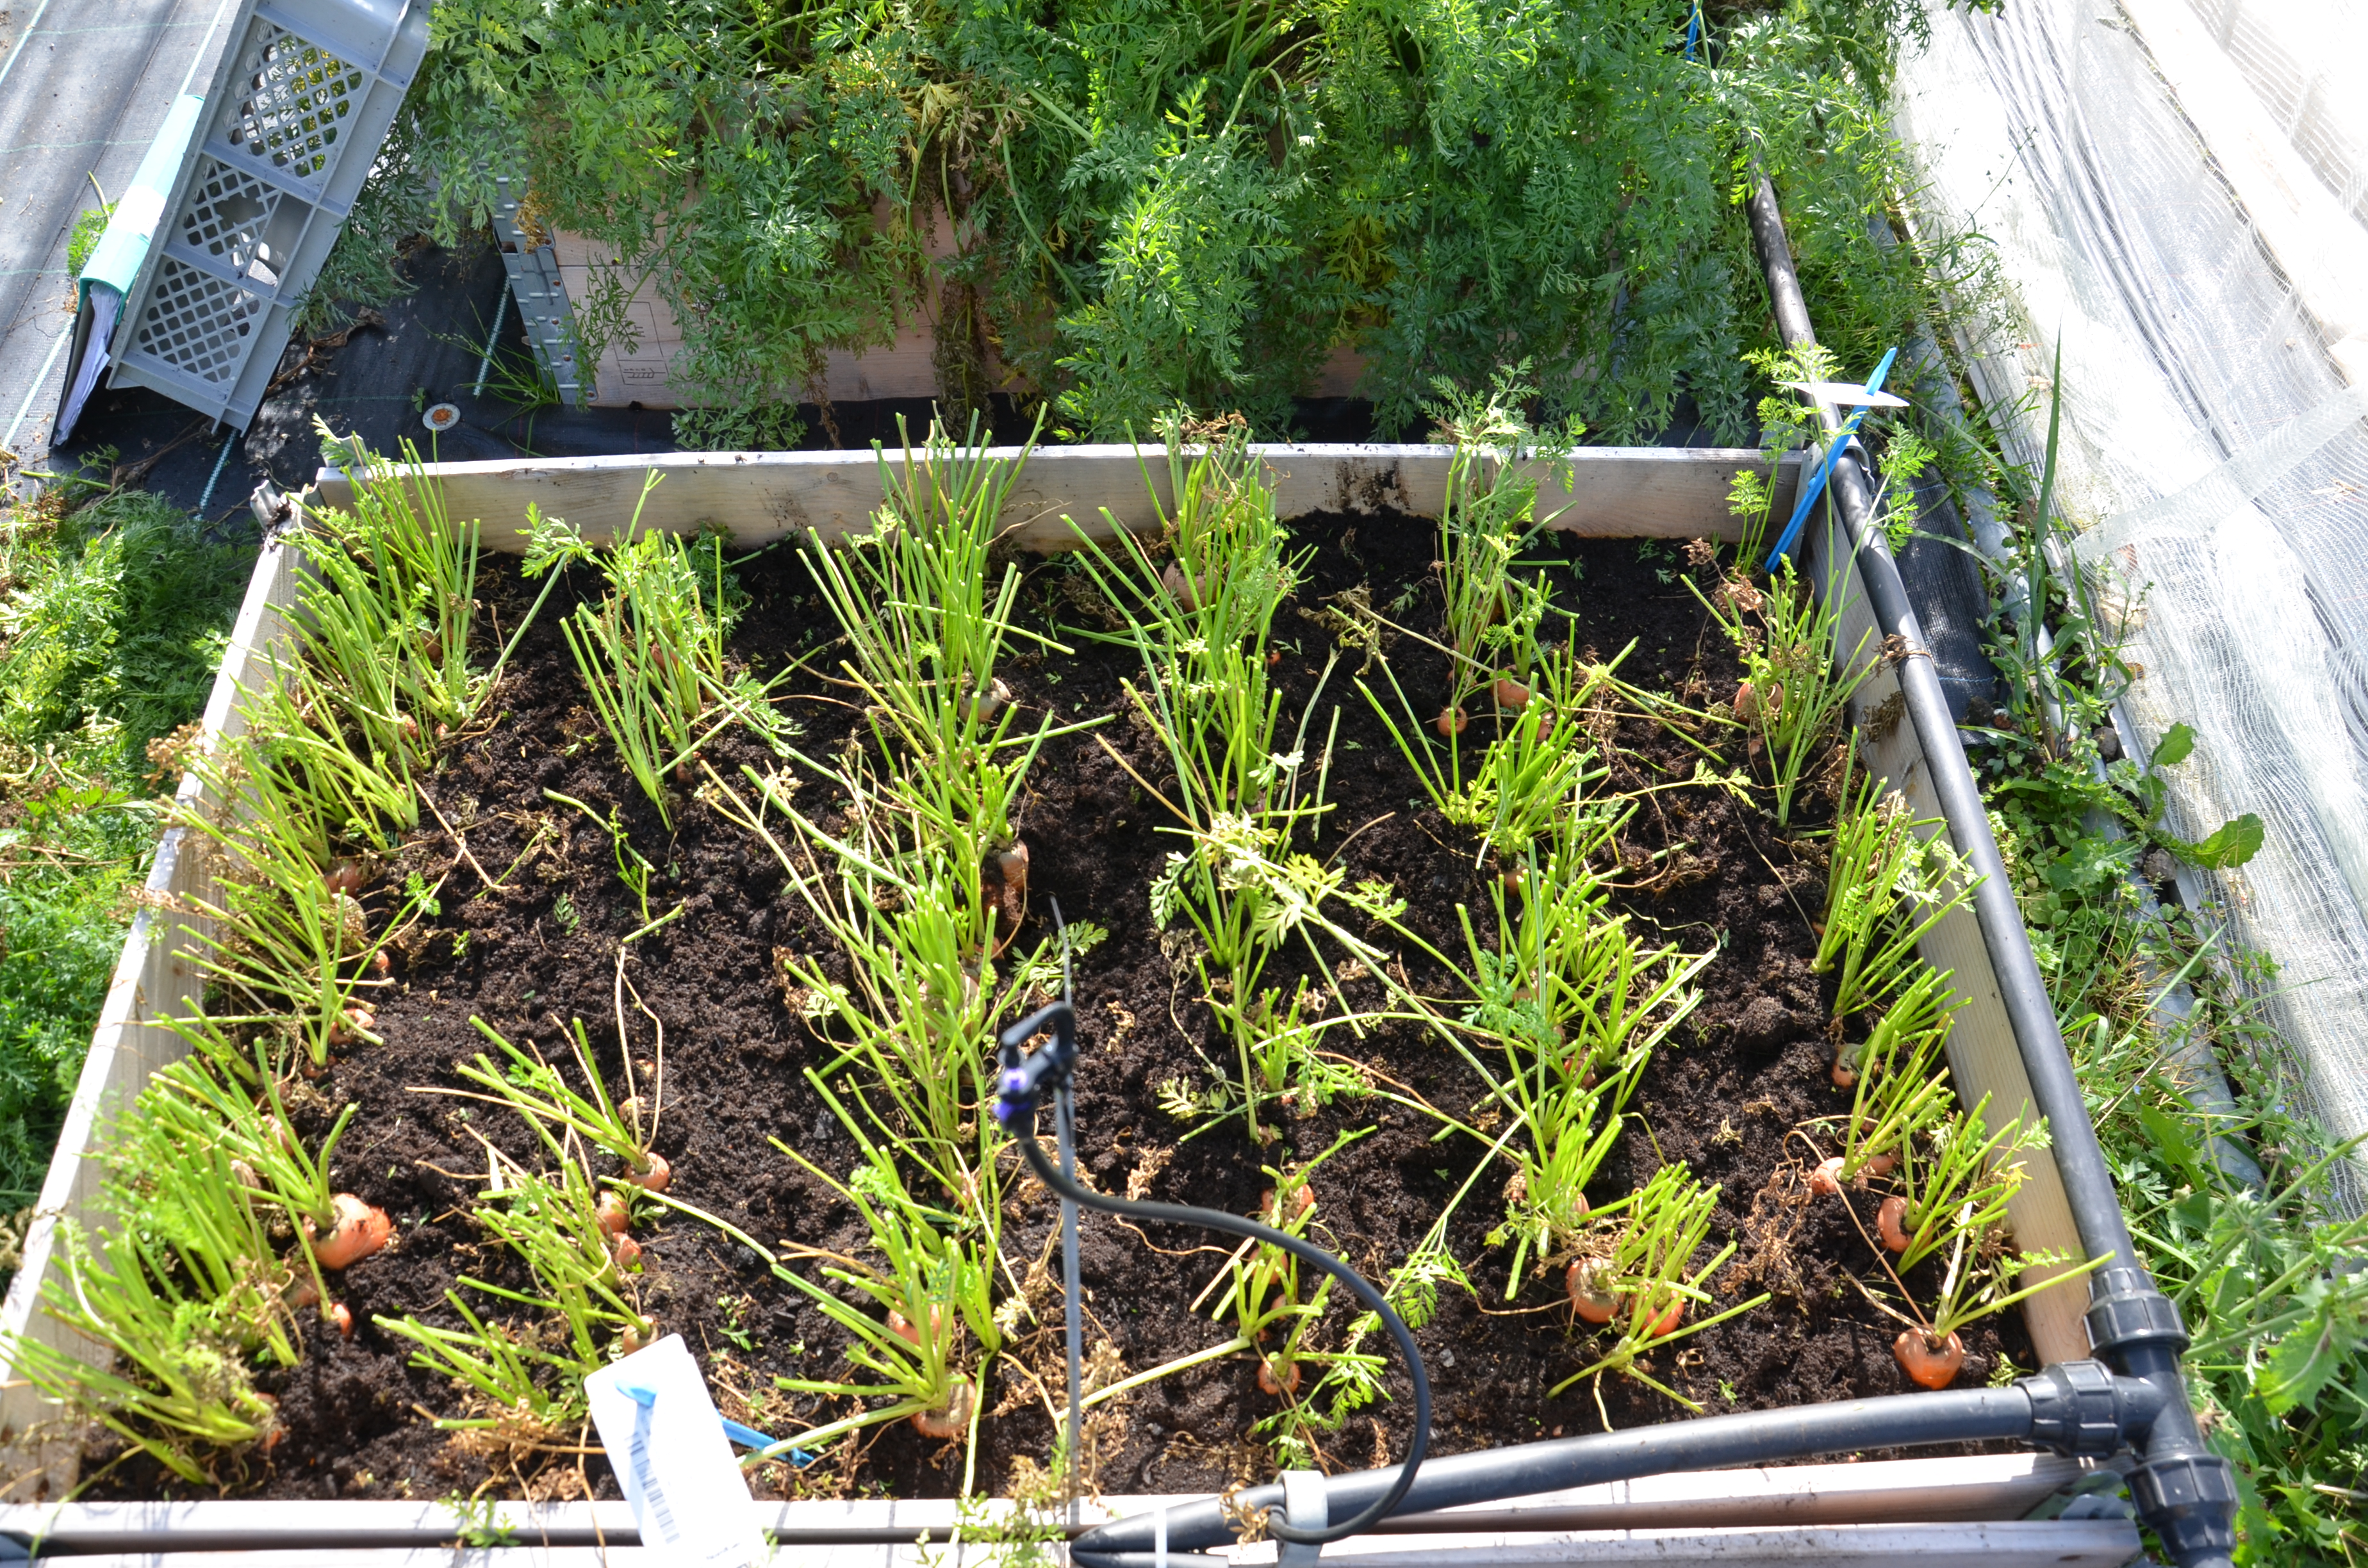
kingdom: Plantae
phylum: Tracheophyta
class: Magnoliopsida
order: Apiales
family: Apiaceae
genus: Daucus
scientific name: Daucus carota
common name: Wild carrot
